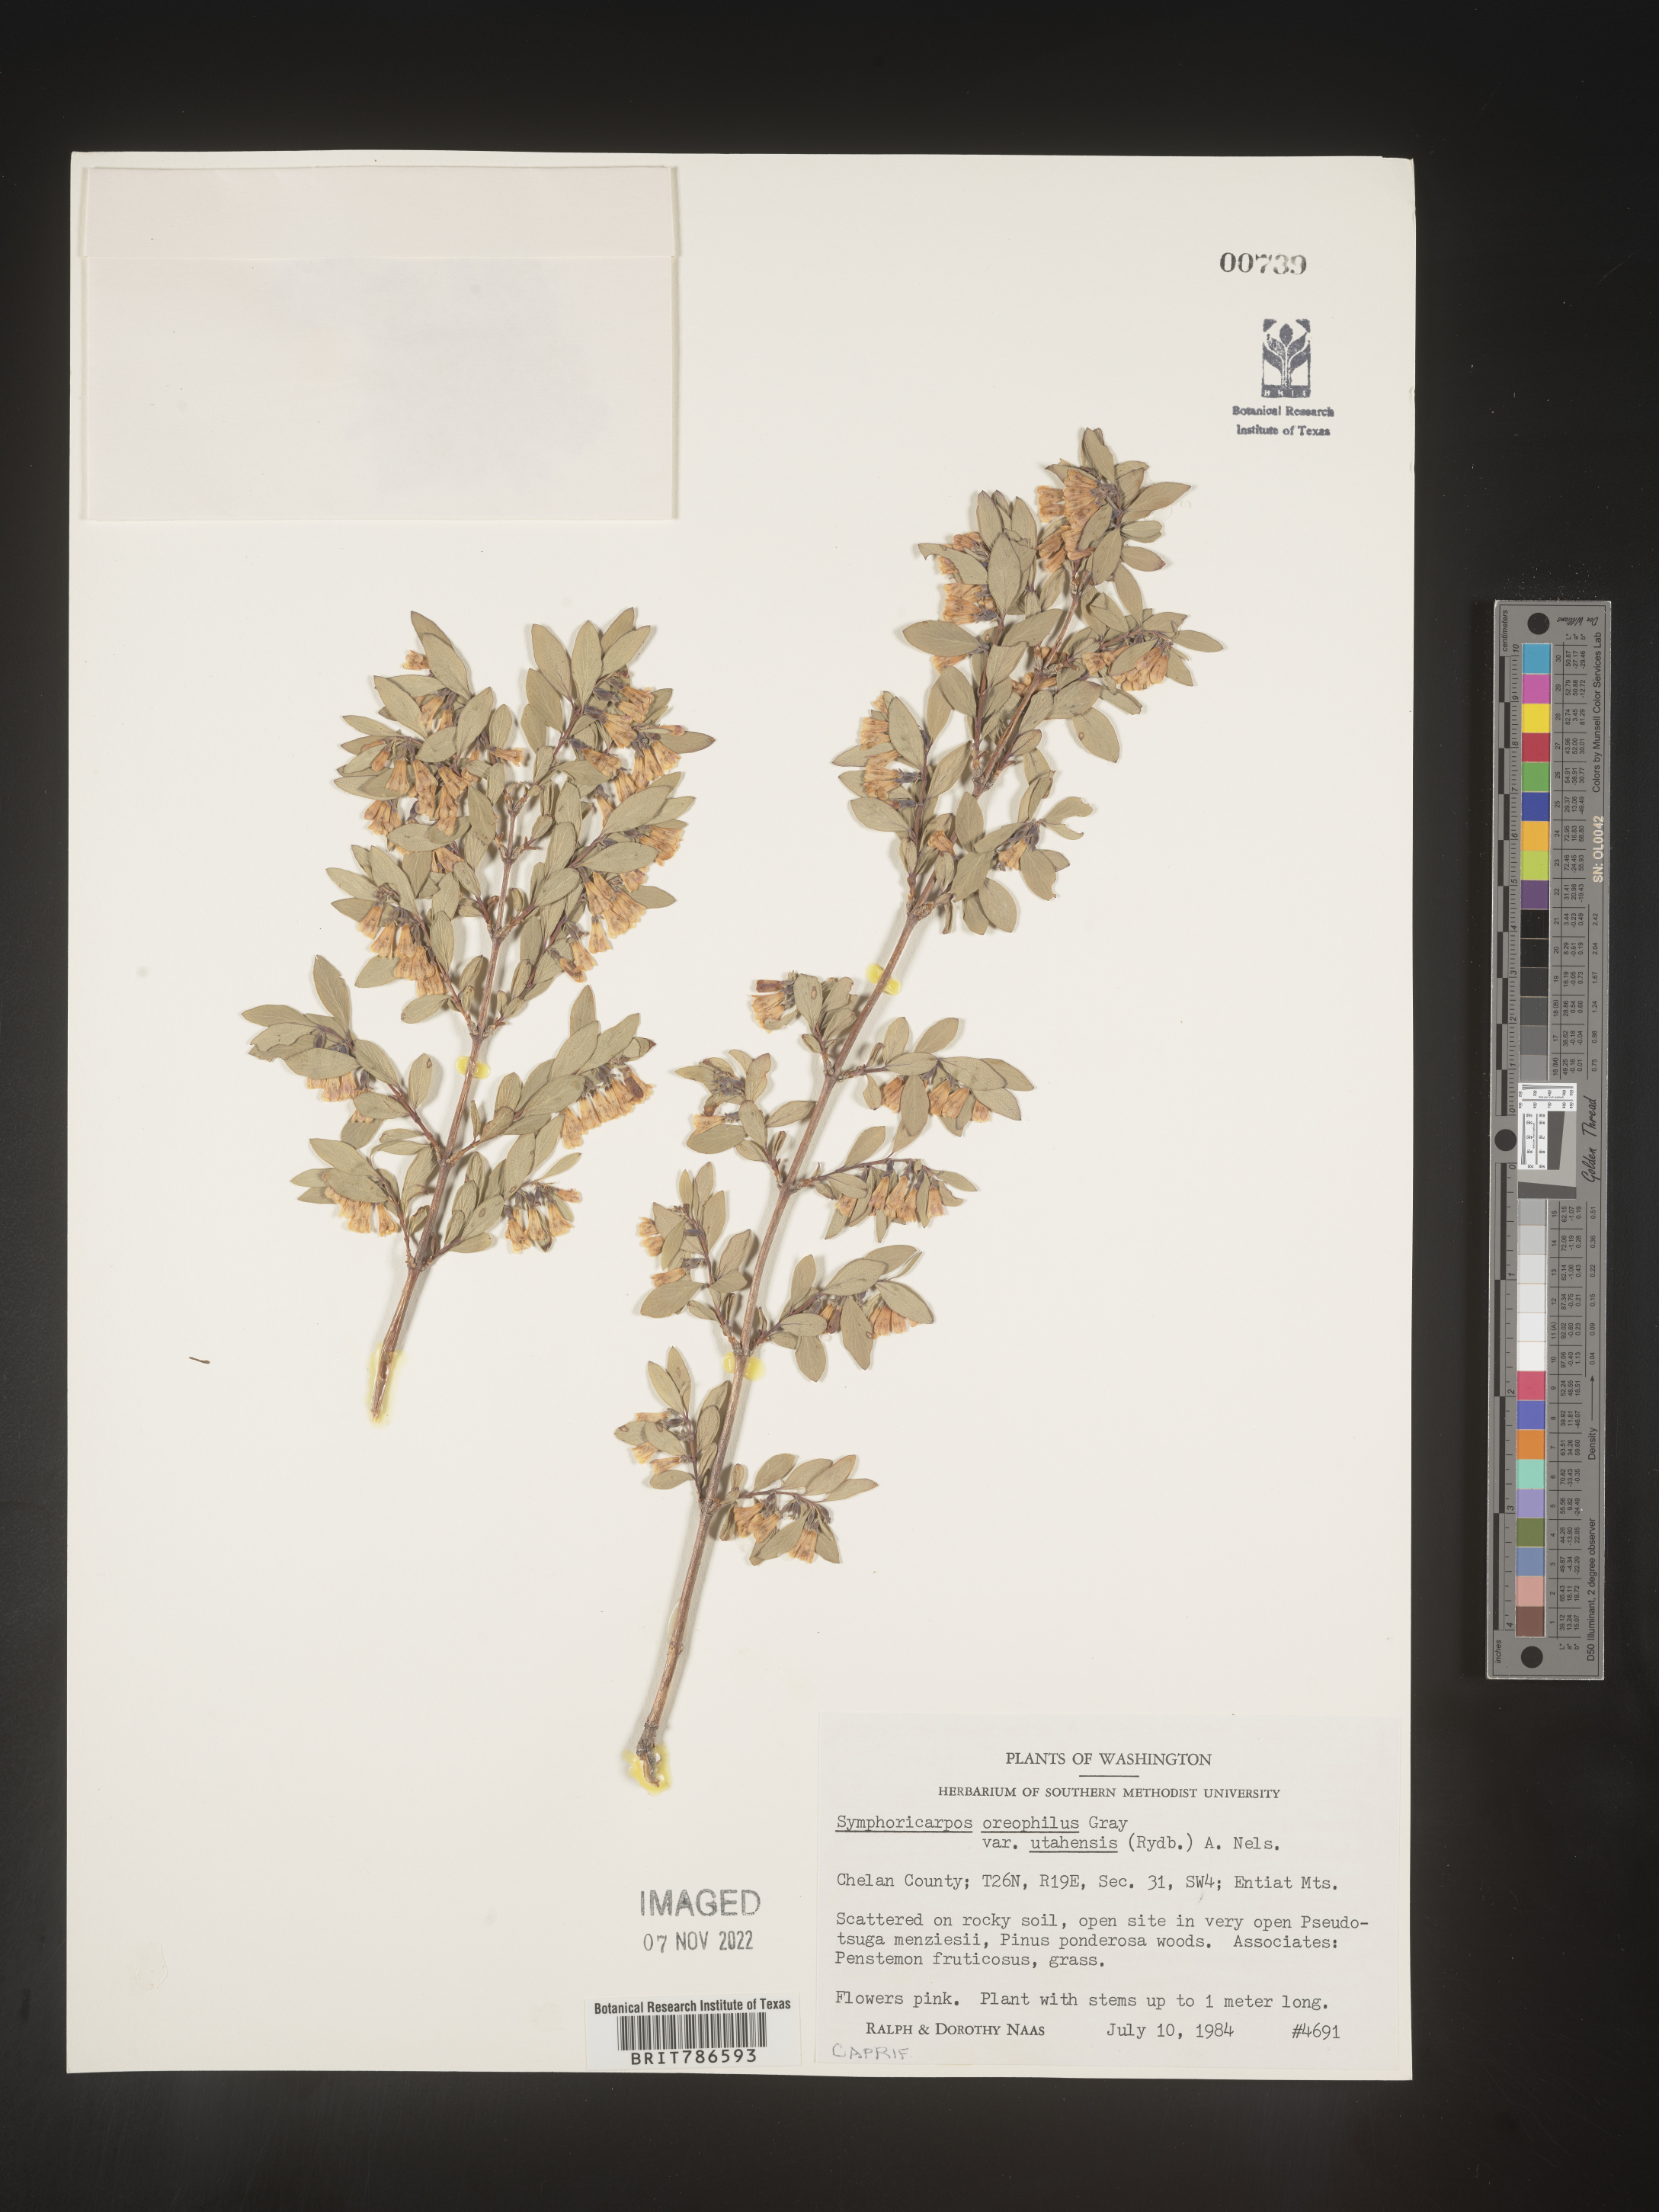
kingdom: Plantae
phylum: Tracheophyta
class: Magnoliopsida
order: Dipsacales
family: Caprifoliaceae
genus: Symphoricarpos
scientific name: Symphoricarpos oreophilus
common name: Mountain snowberry
